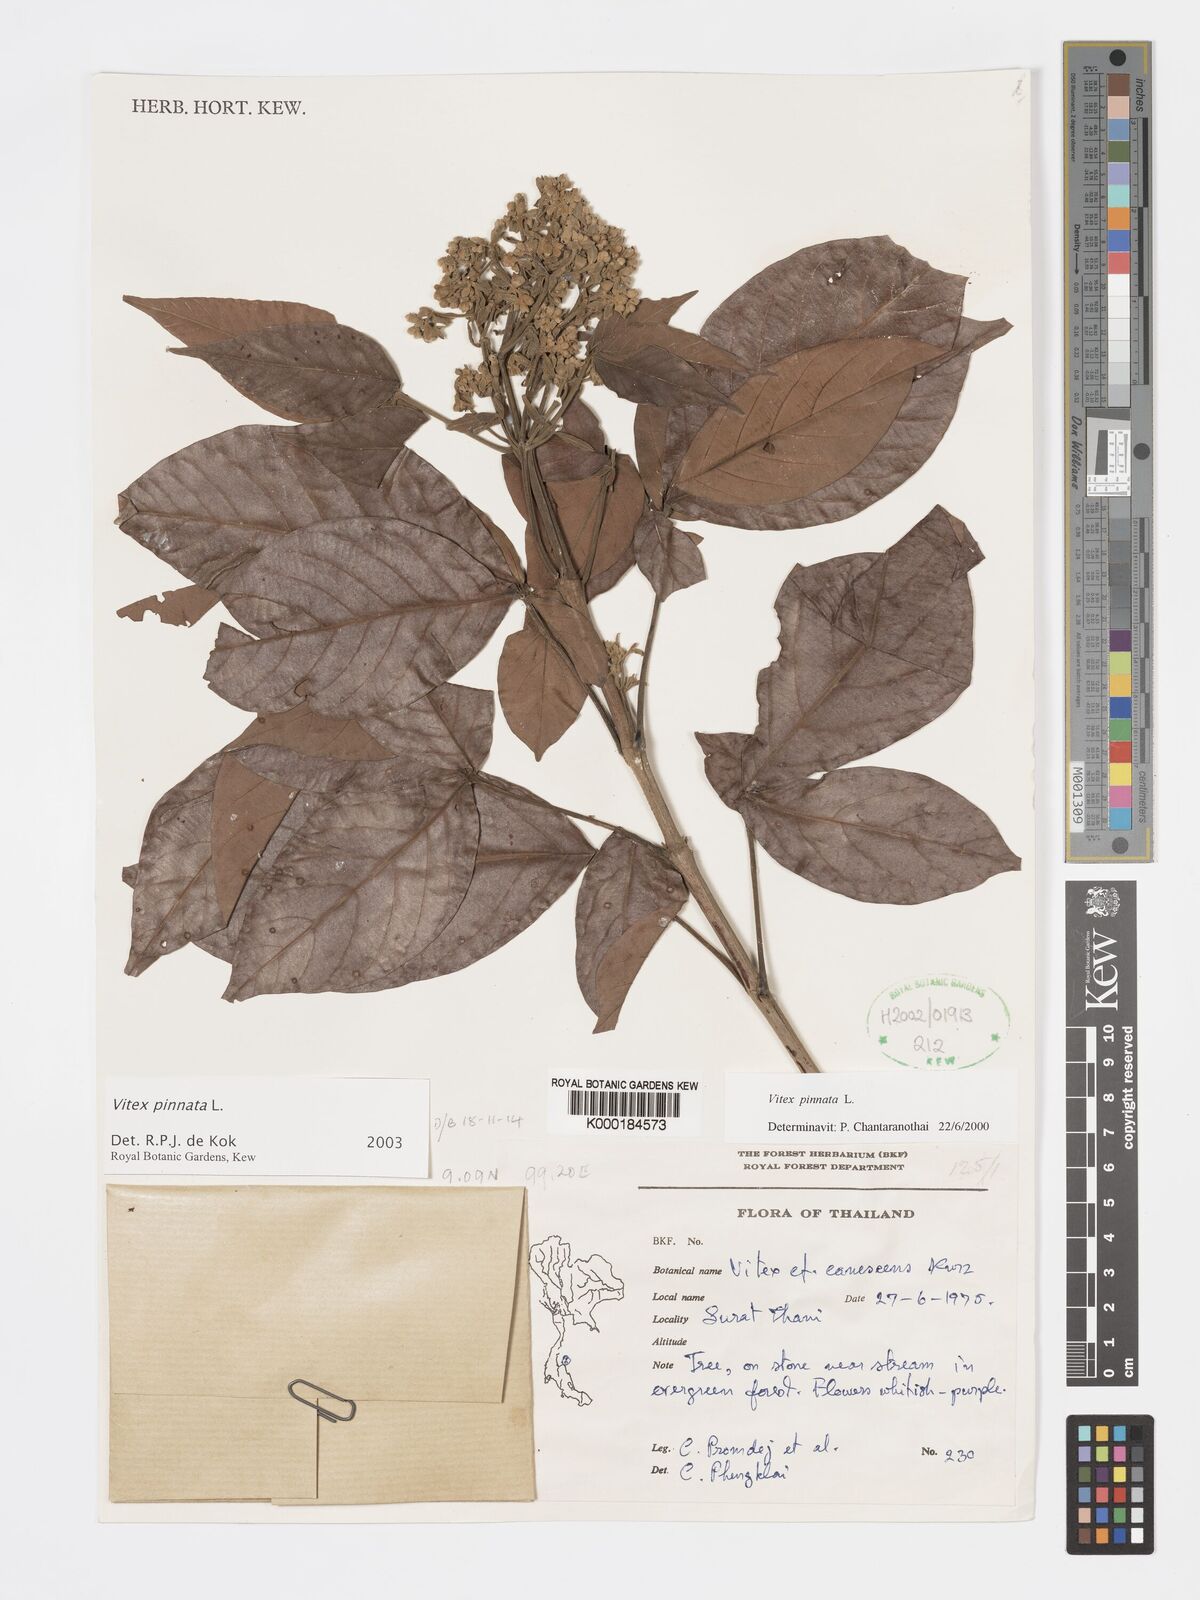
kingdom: Plantae
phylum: Tracheophyta
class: Magnoliopsida
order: Lamiales
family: Lamiaceae
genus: Vitex
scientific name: Vitex pinnata
